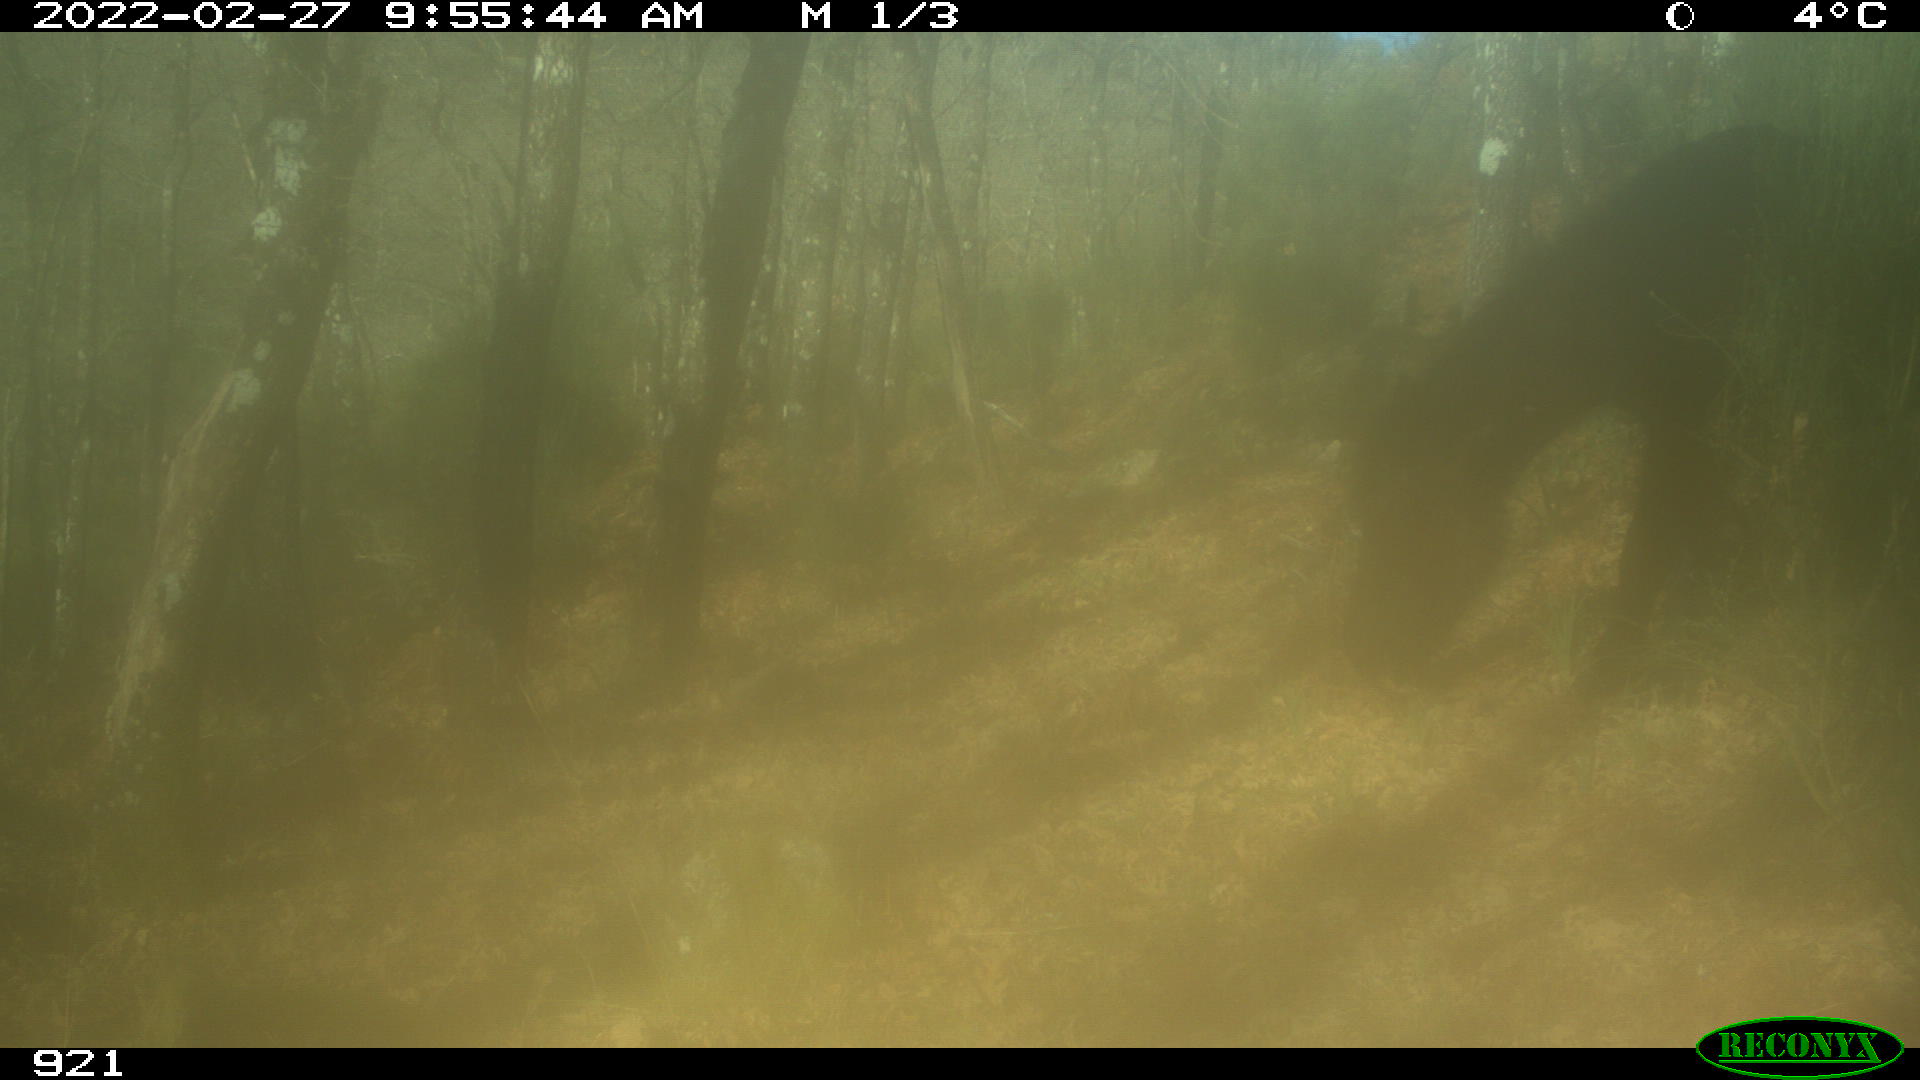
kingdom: Animalia
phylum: Chordata
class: Mammalia
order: Perissodactyla
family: Equidae
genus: Equus
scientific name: Equus caballus
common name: Horse
